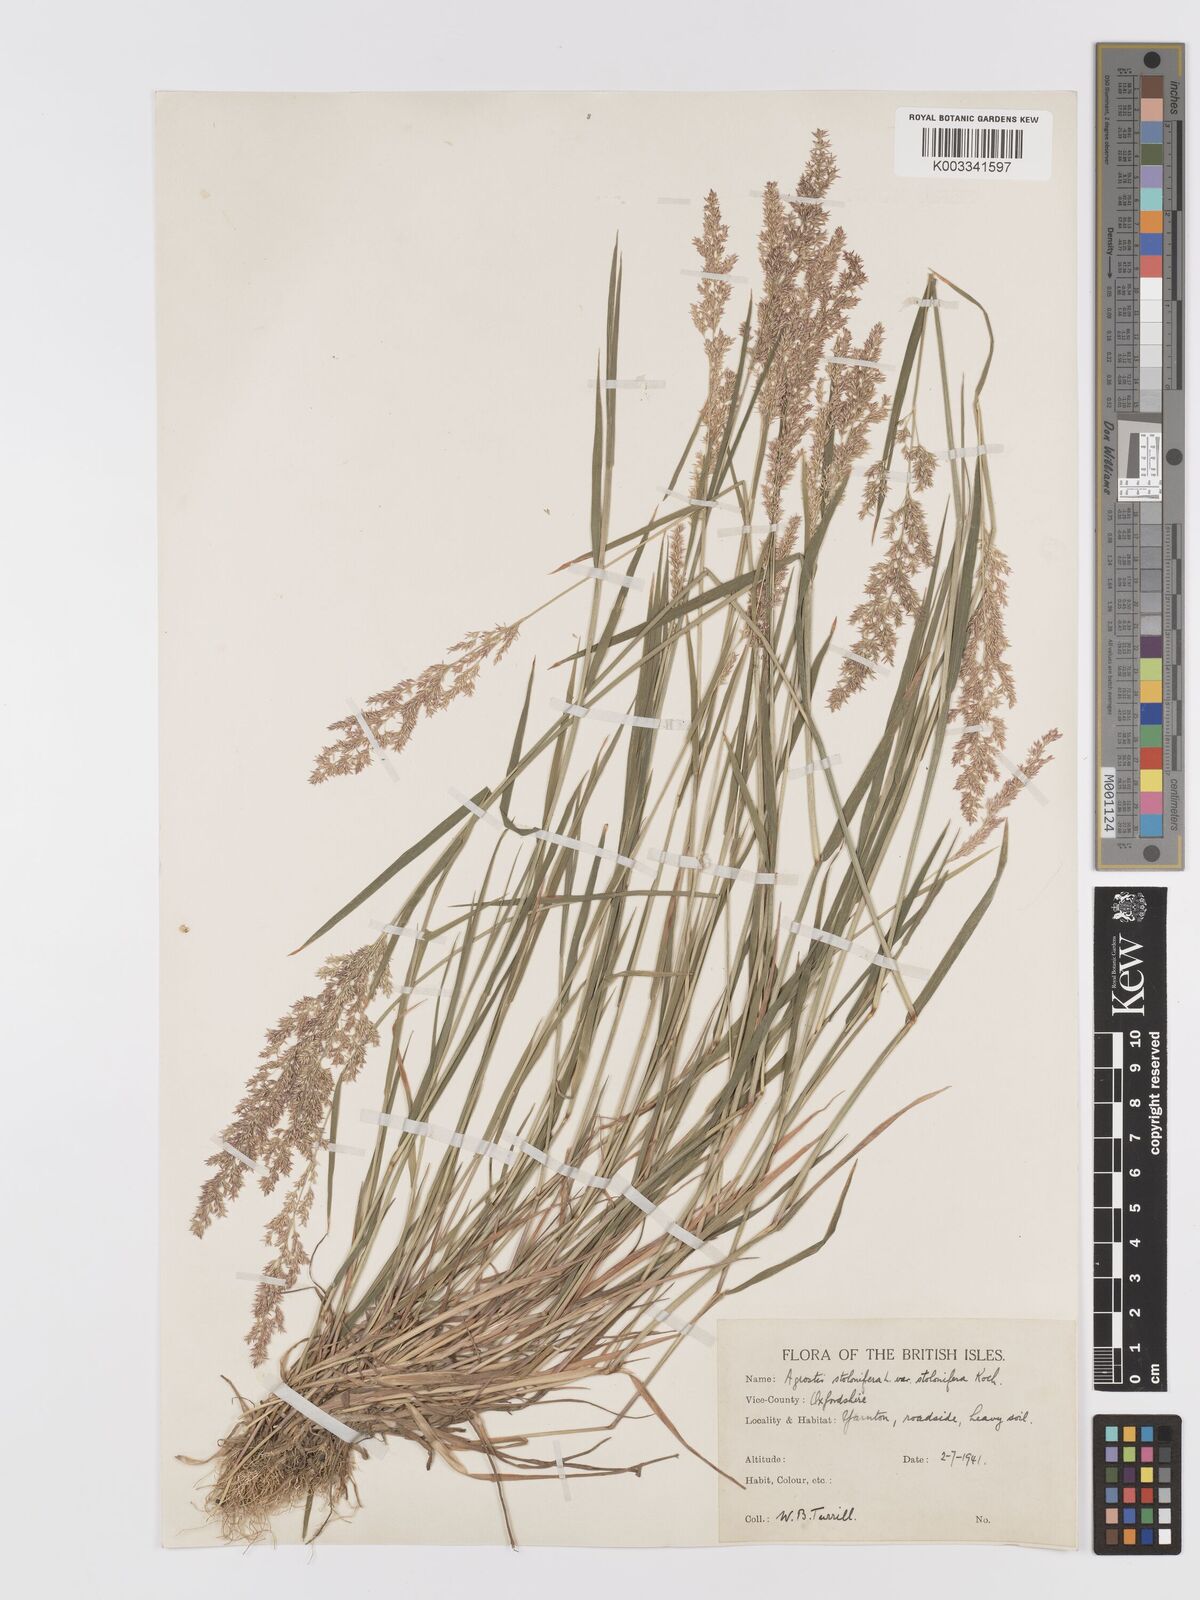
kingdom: Plantae
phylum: Tracheophyta
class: Liliopsida
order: Poales
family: Poaceae
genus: Agrostis
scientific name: Agrostis stolonifera
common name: Creeping bentgrass
